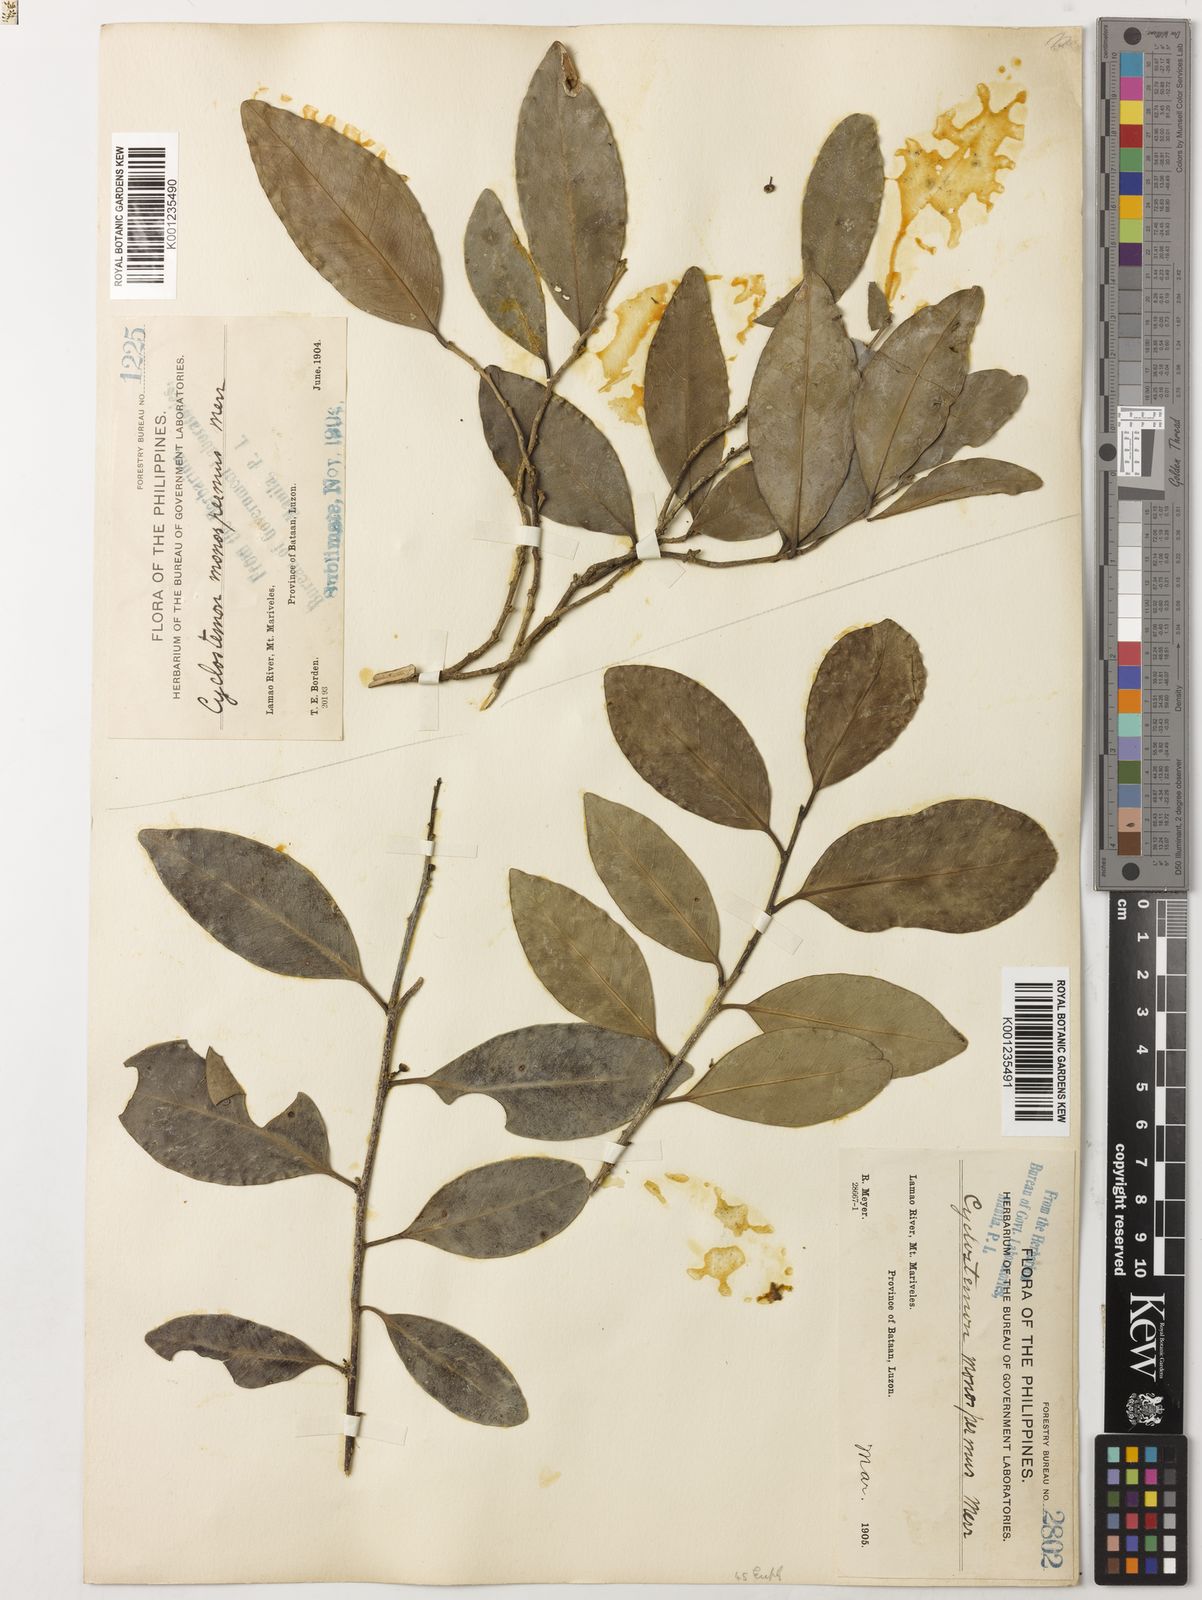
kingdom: Plantae
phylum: Tracheophyta
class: Magnoliopsida
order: Malpighiales
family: Putranjivaceae
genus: Drypetes
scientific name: Drypetes monosperma
